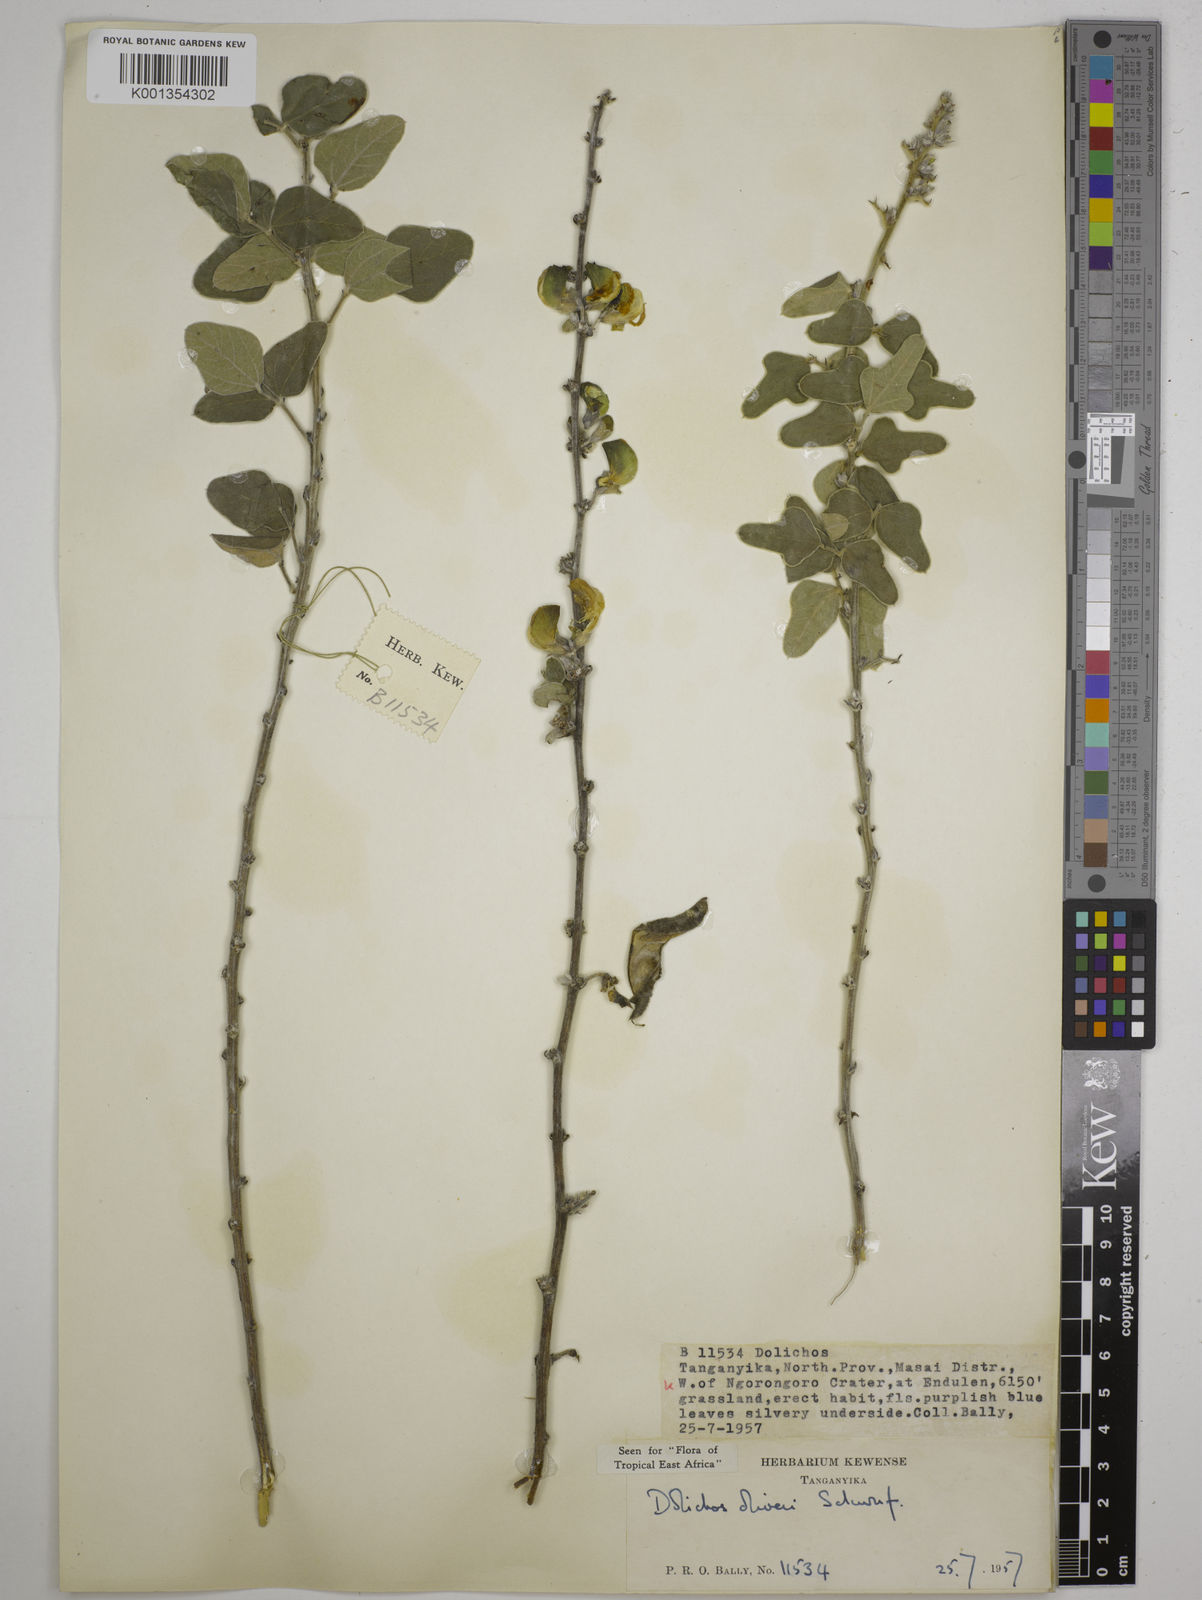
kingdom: Plantae
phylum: Tracheophyta
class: Magnoliopsida
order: Fabales
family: Fabaceae
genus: Dolichos
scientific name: Dolichos oliveri
